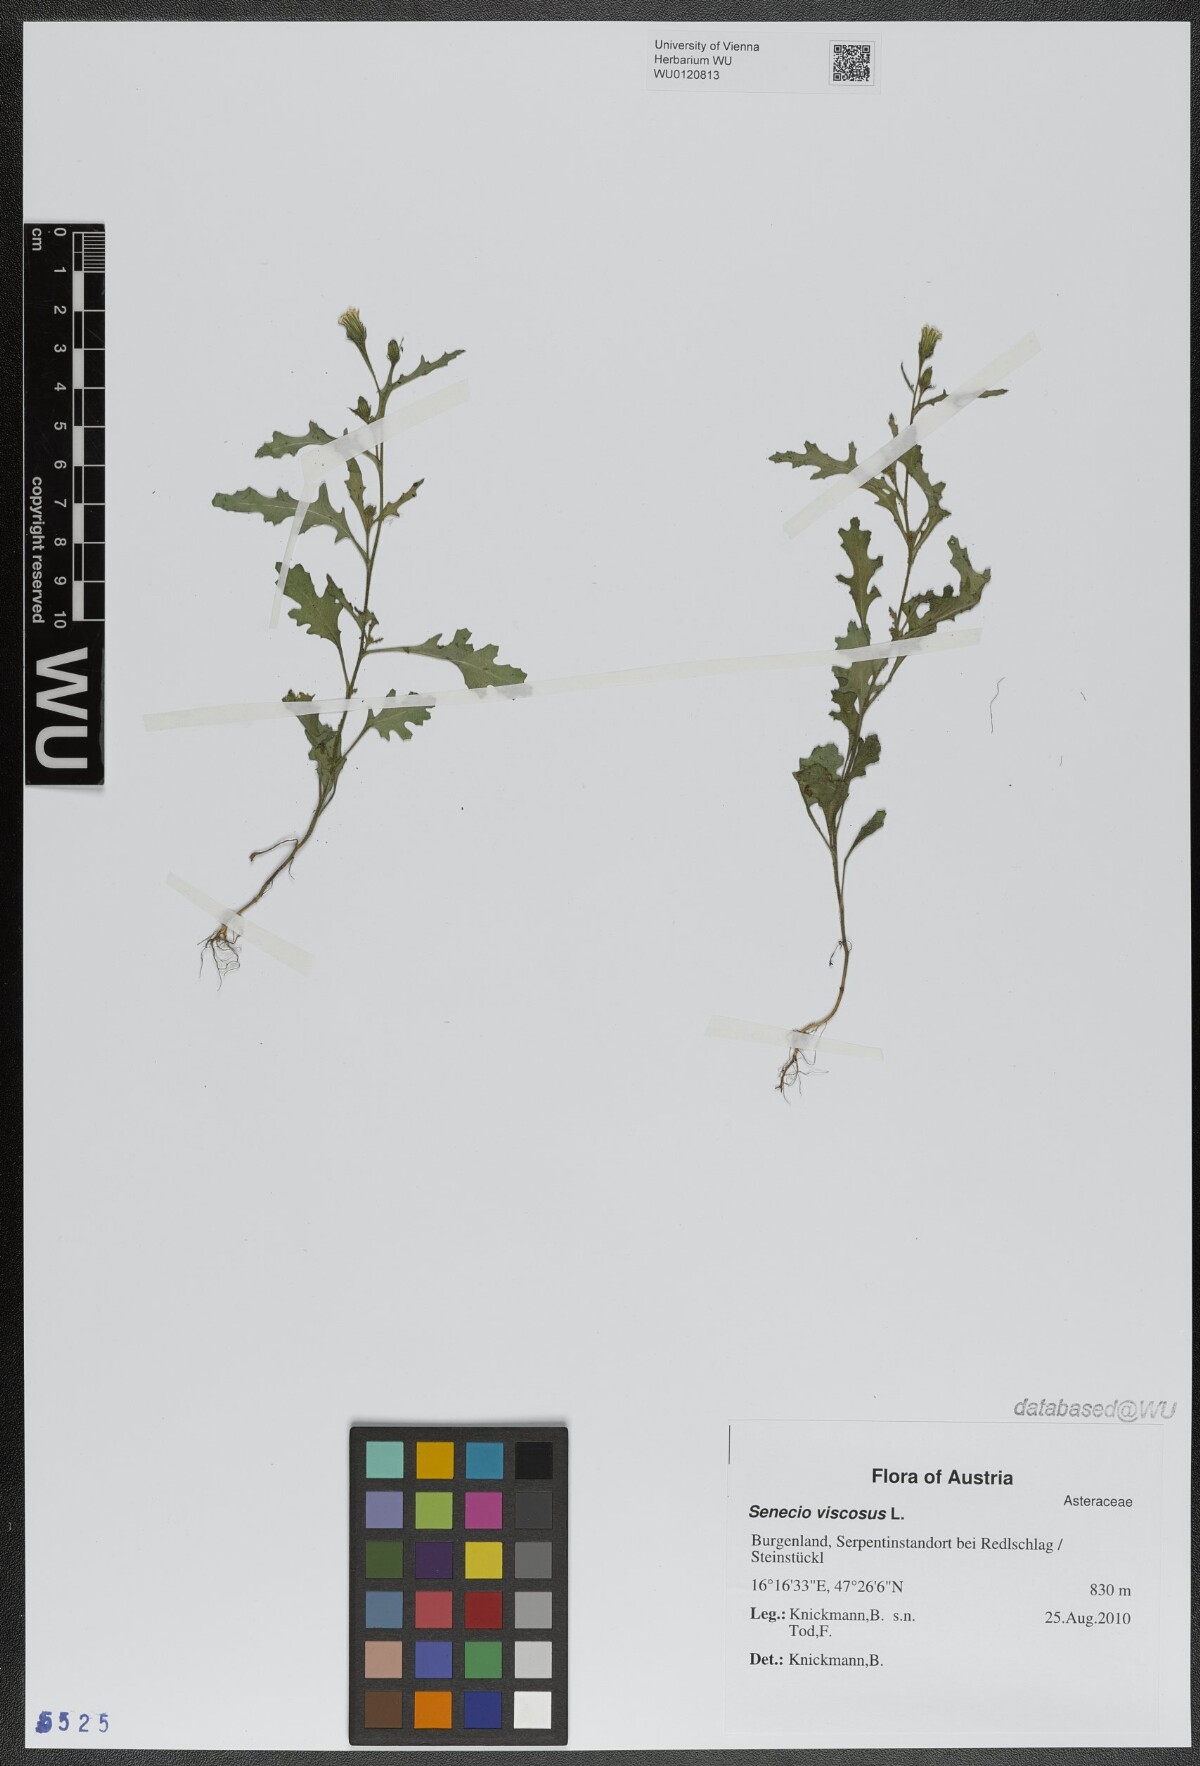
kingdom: Plantae
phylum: Tracheophyta
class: Magnoliopsida
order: Asterales
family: Asteraceae
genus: Senecio
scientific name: Senecio viscosus
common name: Sticky groundsel
